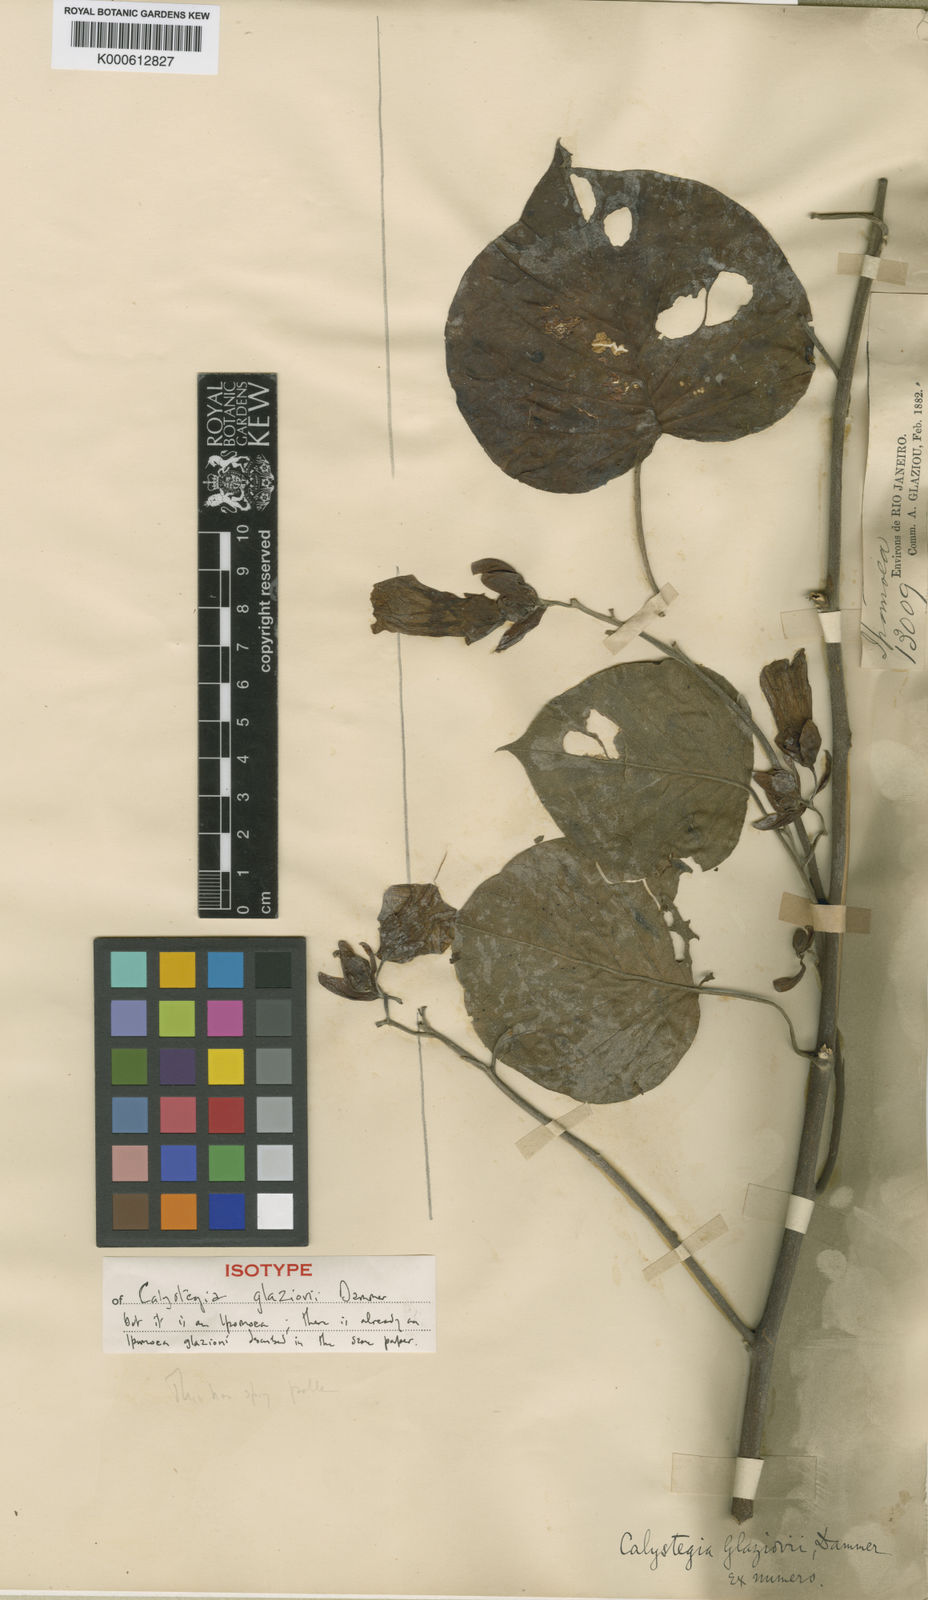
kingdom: Plantae
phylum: Tracheophyta
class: Magnoliopsida
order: Solanales
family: Convolvulaceae
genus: Distimake
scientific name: Distimake tuberosus
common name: Spanish arborvine
